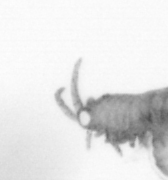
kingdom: Animalia
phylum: Arthropoda
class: Copepoda
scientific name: Copepoda
